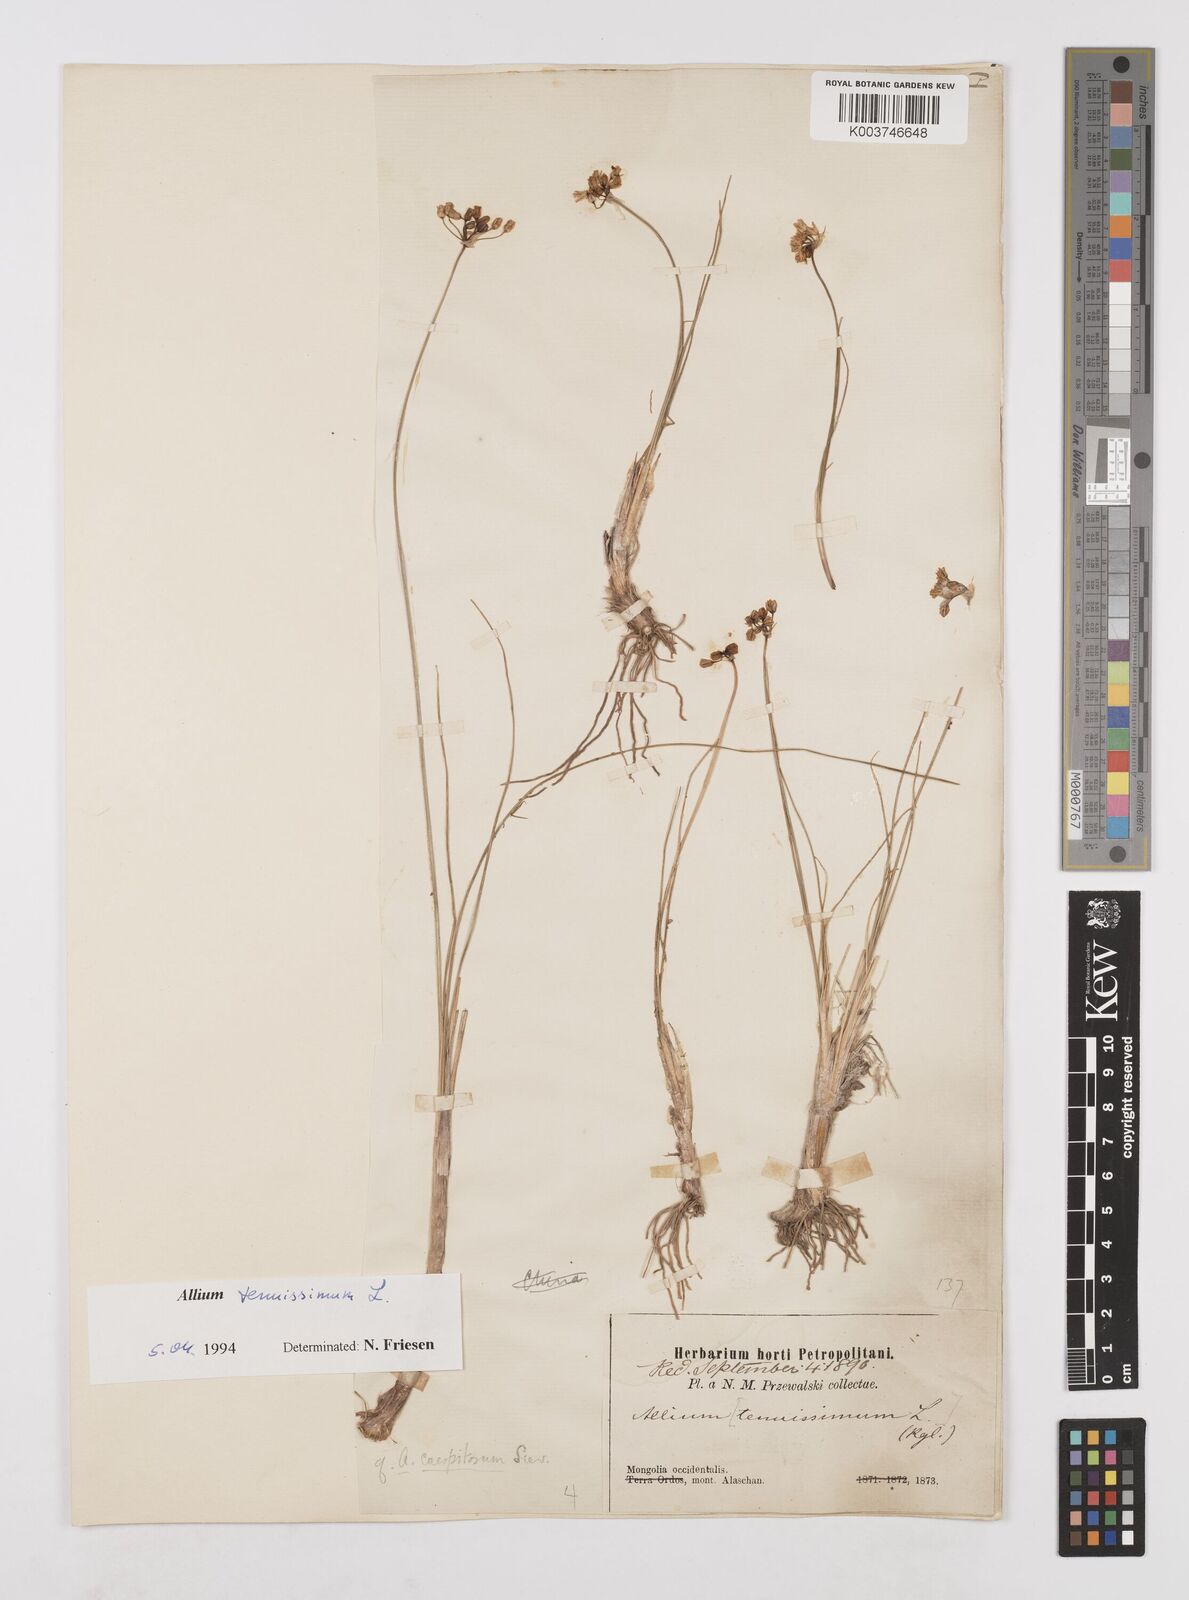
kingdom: Plantae
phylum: Tracheophyta
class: Liliopsida
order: Asparagales
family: Amaryllidaceae
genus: Allium
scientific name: Allium tenuissimum
